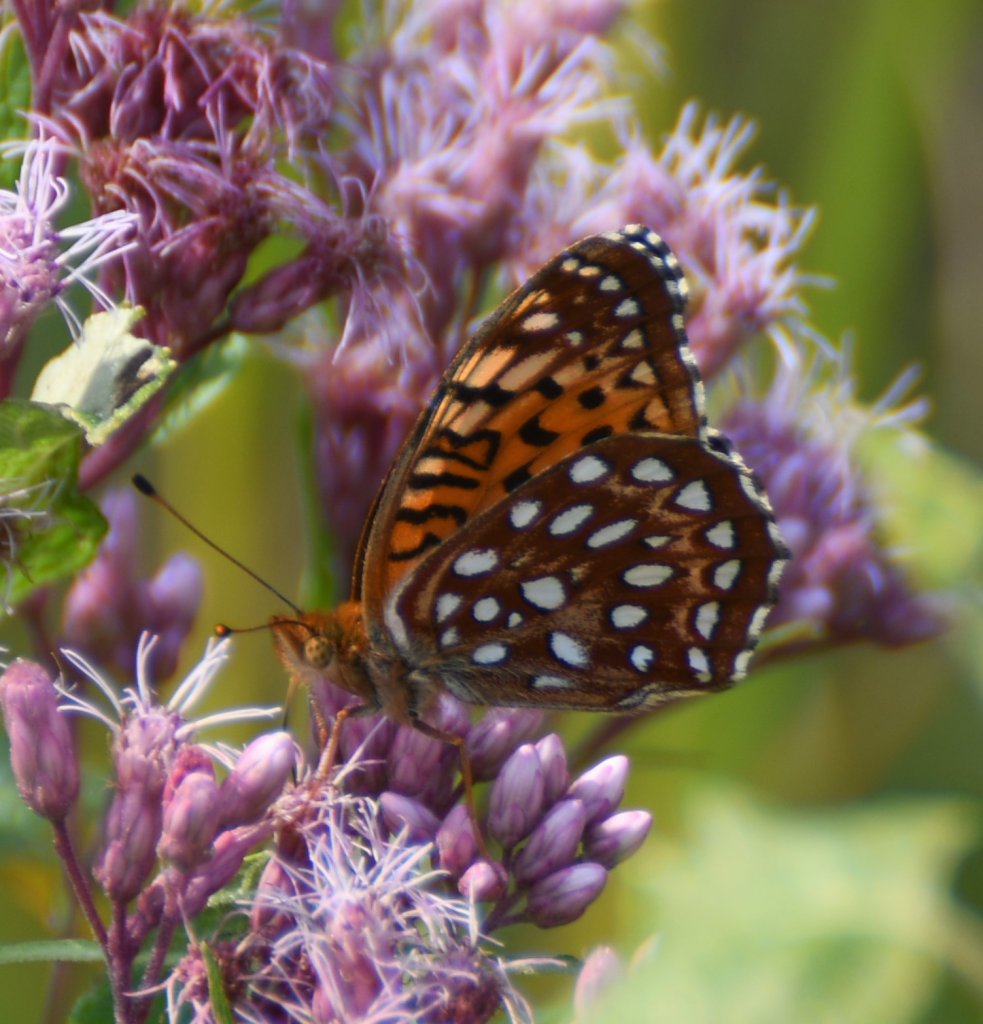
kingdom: Animalia
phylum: Arthropoda
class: Insecta
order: Lepidoptera
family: Nymphalidae
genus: Speyeria
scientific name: Speyeria aphrodite
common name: Aphrodite Fritillary
